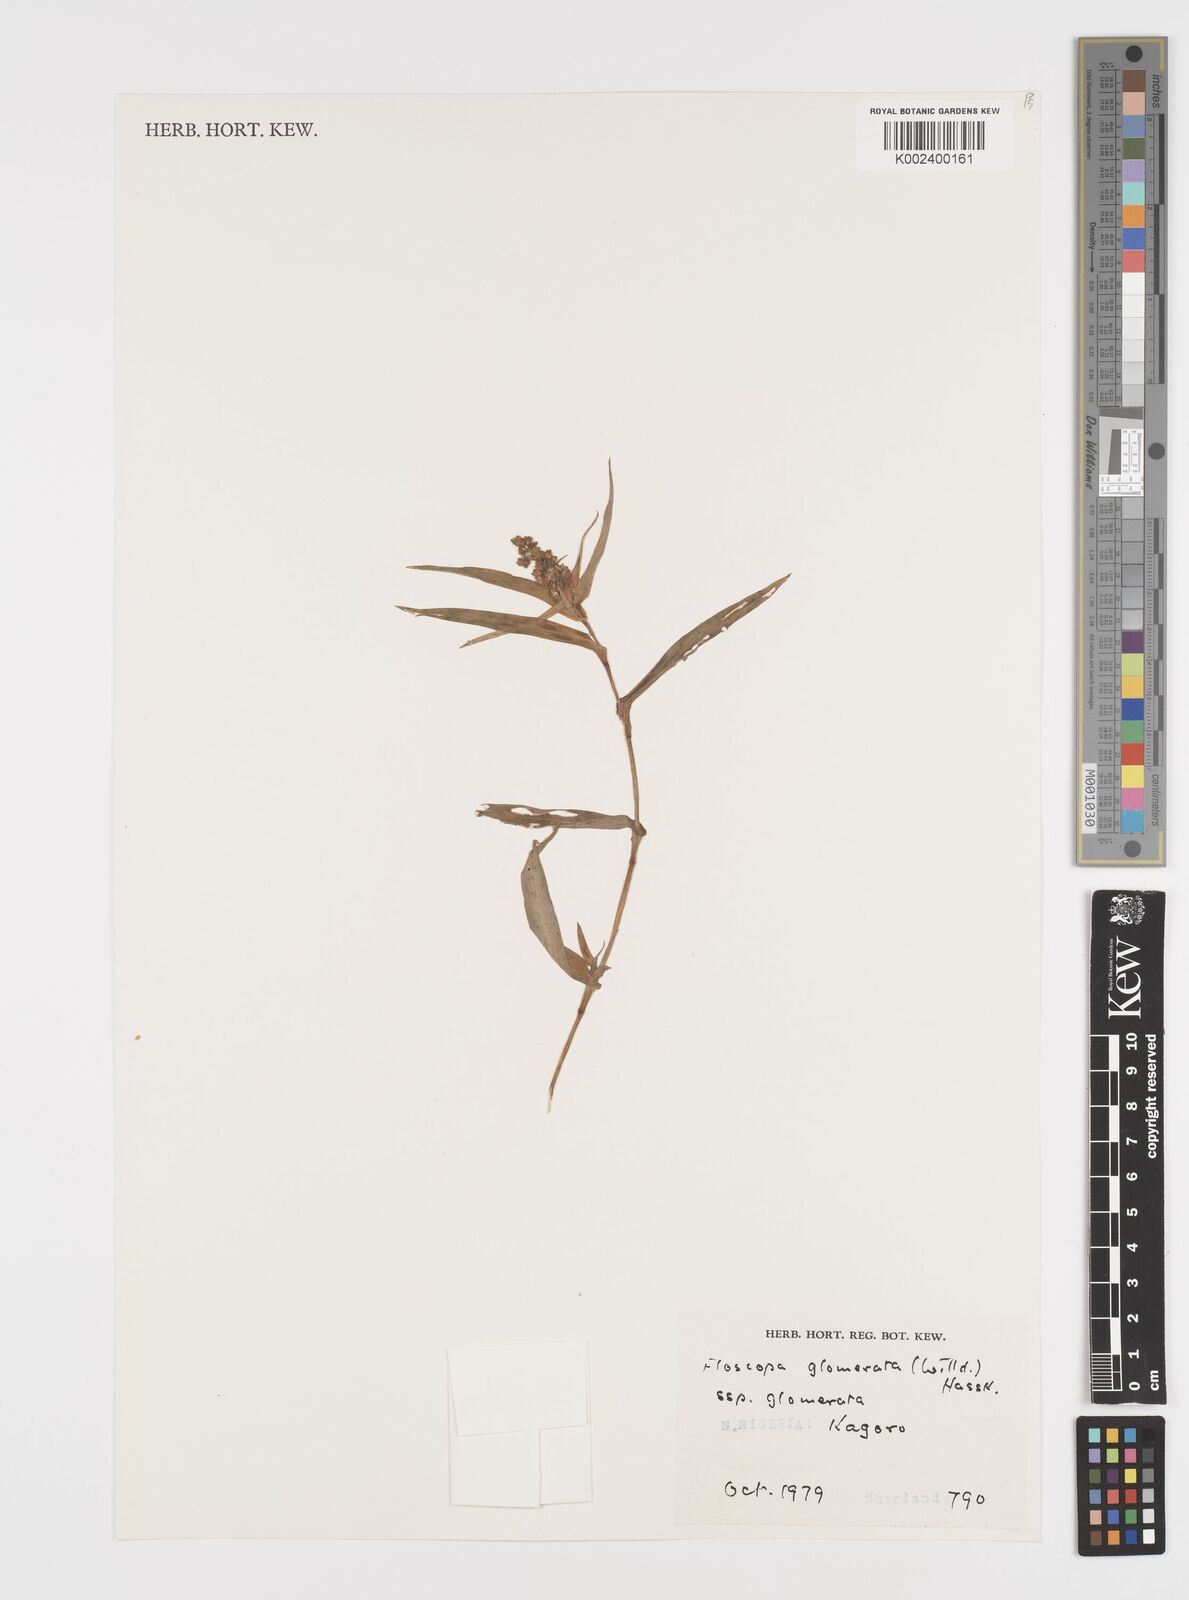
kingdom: Plantae
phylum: Tracheophyta
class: Liliopsida
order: Commelinales
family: Commelinaceae
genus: Floscopa
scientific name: Floscopa glomerata
